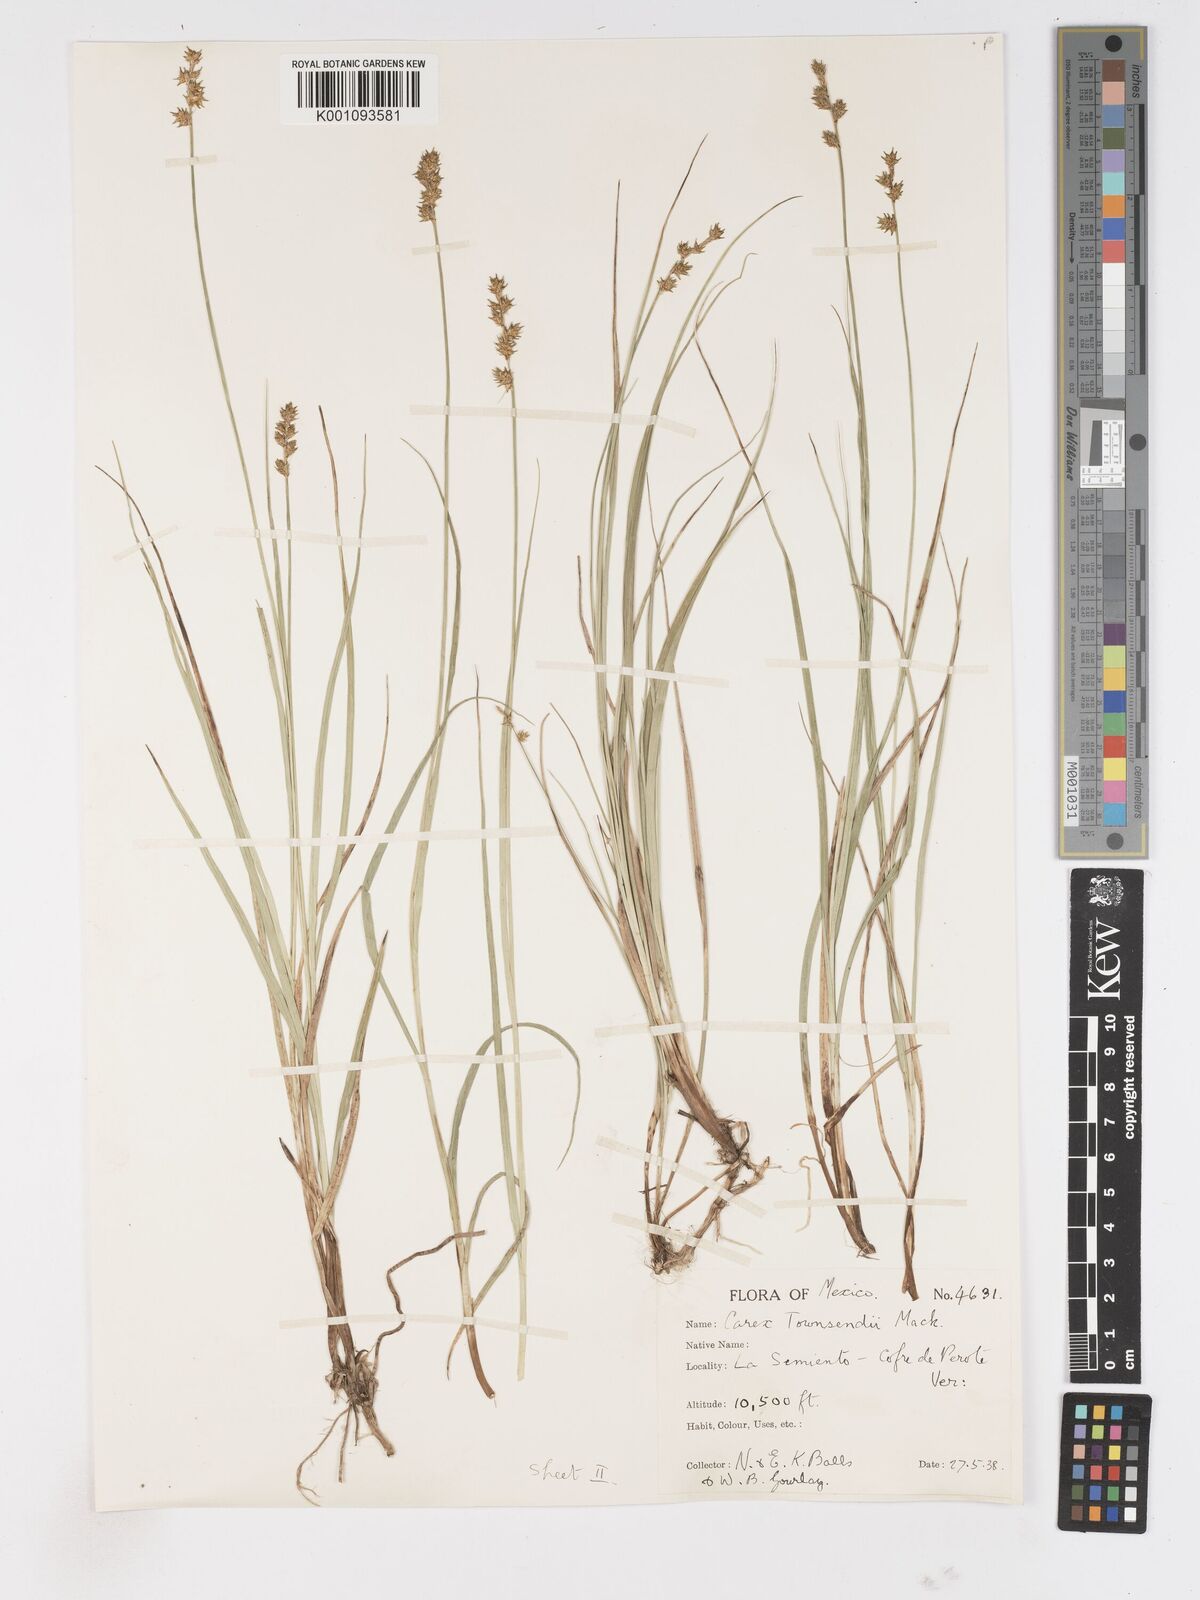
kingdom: Plantae
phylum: Tracheophyta
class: Liliopsida
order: Poales
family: Cyperaceae
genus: Carex
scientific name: Carex townsendii
